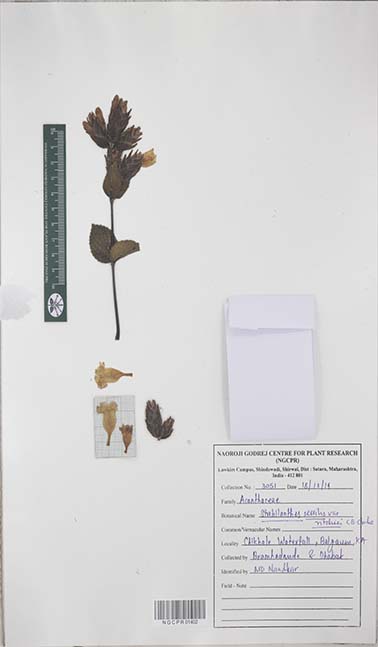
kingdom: Plantae
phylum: Tracheophyta
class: Magnoliopsida
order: Lamiales
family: Acanthaceae
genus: Strobilanthes
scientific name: Strobilanthes sessilis
